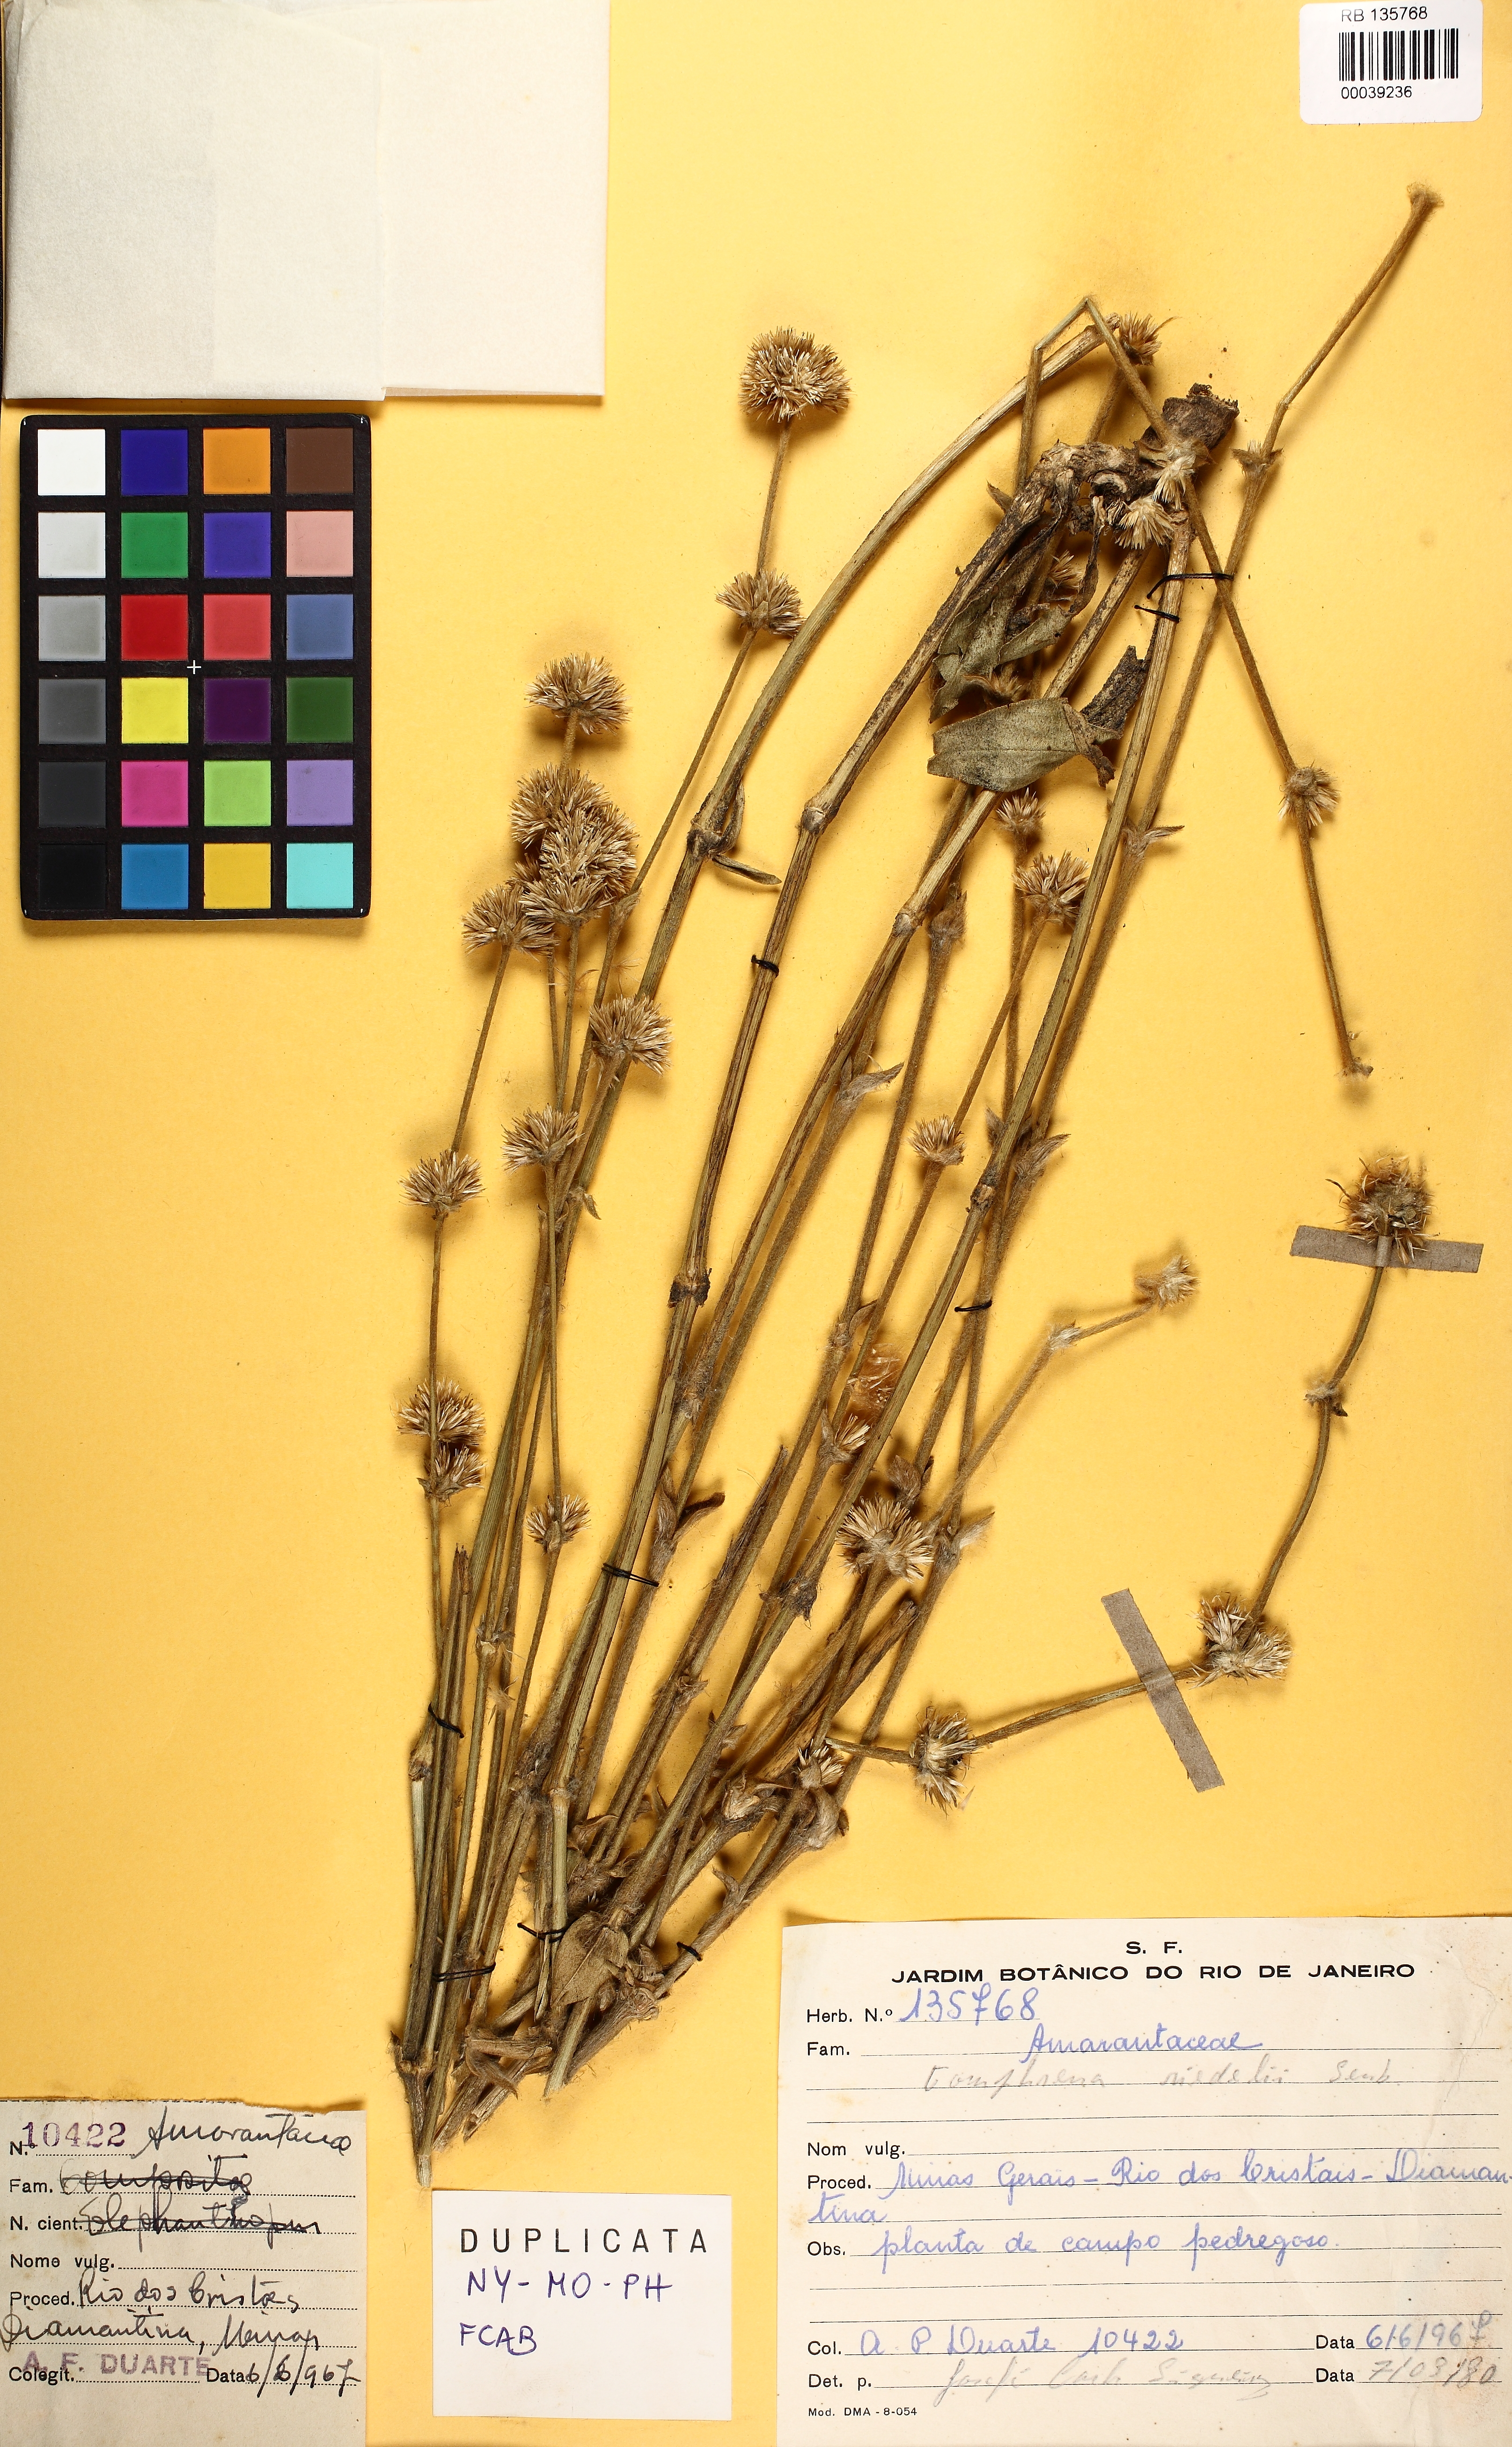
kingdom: Plantae
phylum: Tracheophyta
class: Magnoliopsida
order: Caryophyllales
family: Amaranthaceae
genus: Gomphrena
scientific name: Gomphrena riedelii
